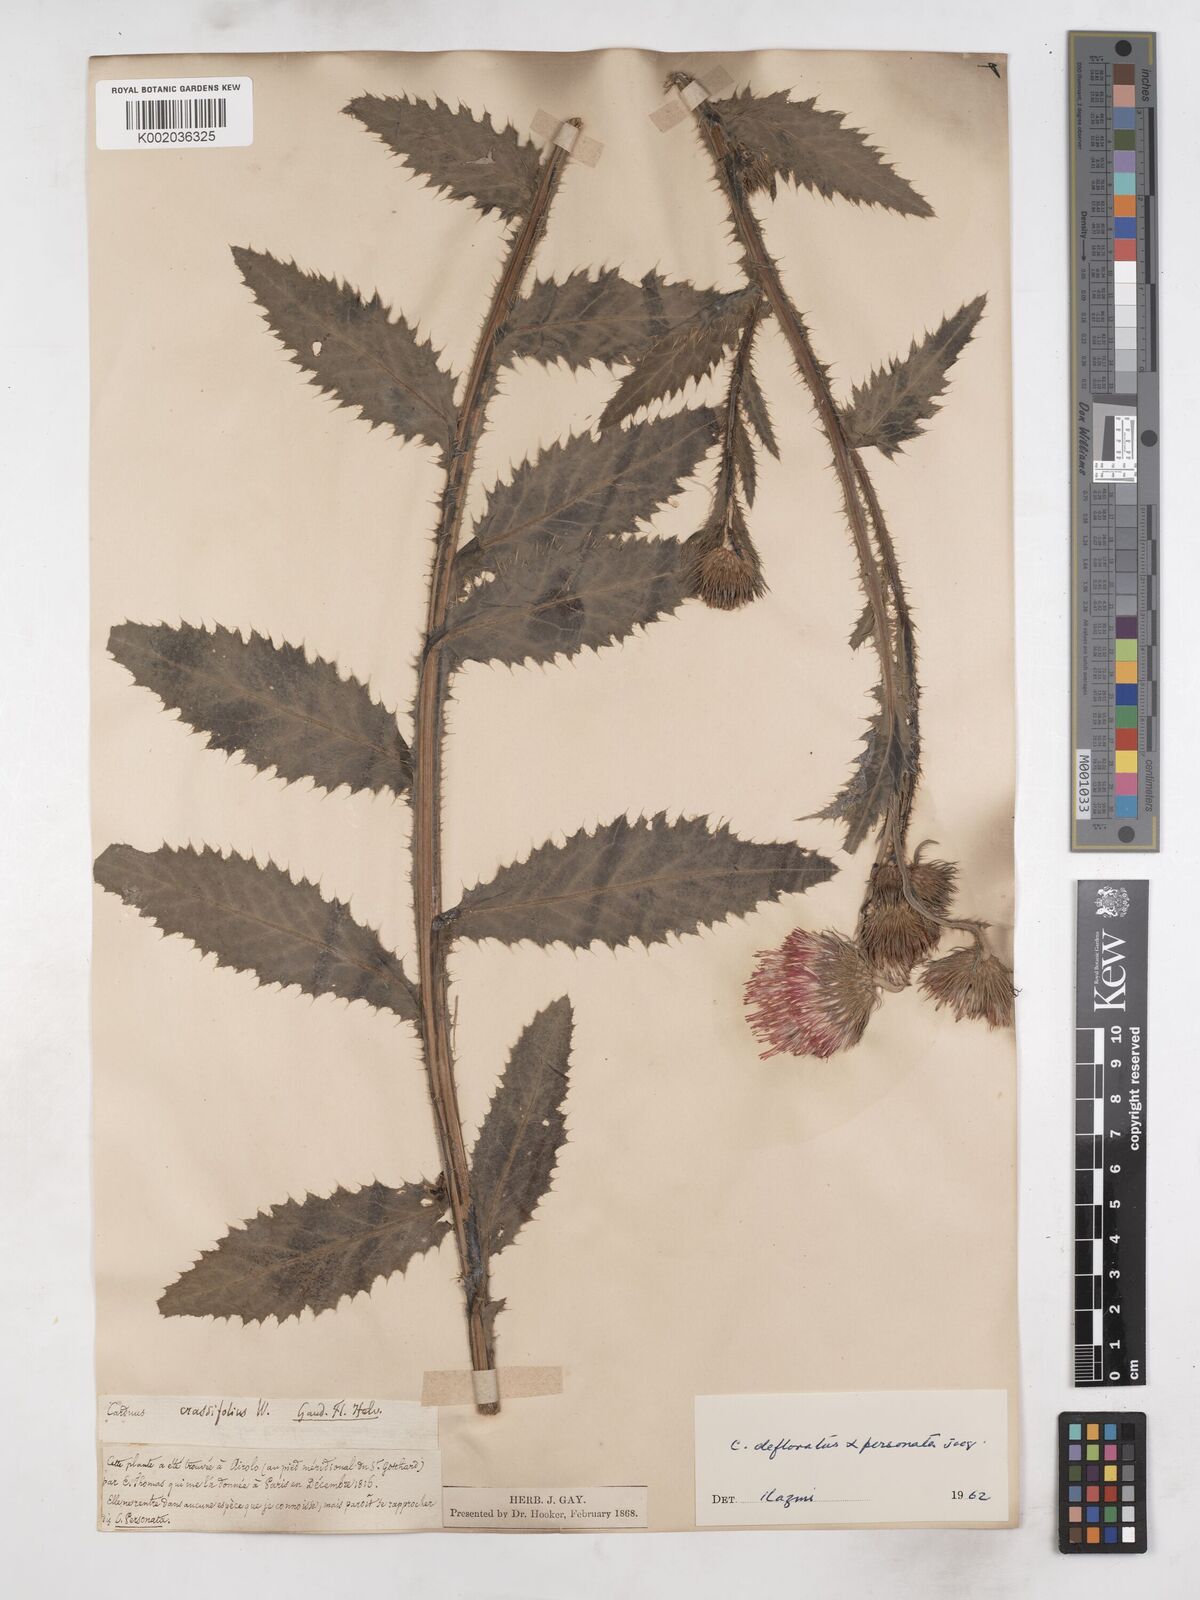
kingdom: Plantae
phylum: Tracheophyta
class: Magnoliopsida
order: Asterales
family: Asteraceae
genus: Carduus
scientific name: Carduus defloratus
